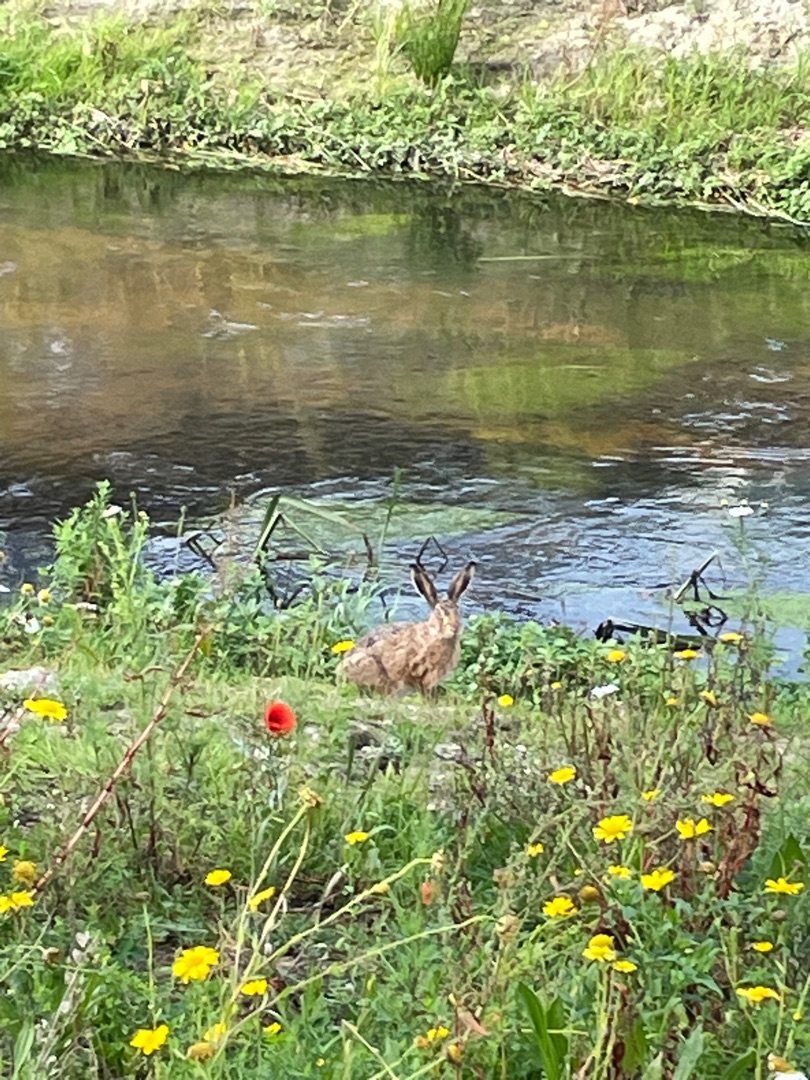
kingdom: Animalia
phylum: Chordata
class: Mammalia
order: Lagomorpha
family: Leporidae
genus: Lepus
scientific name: Lepus europaeus
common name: Hare
